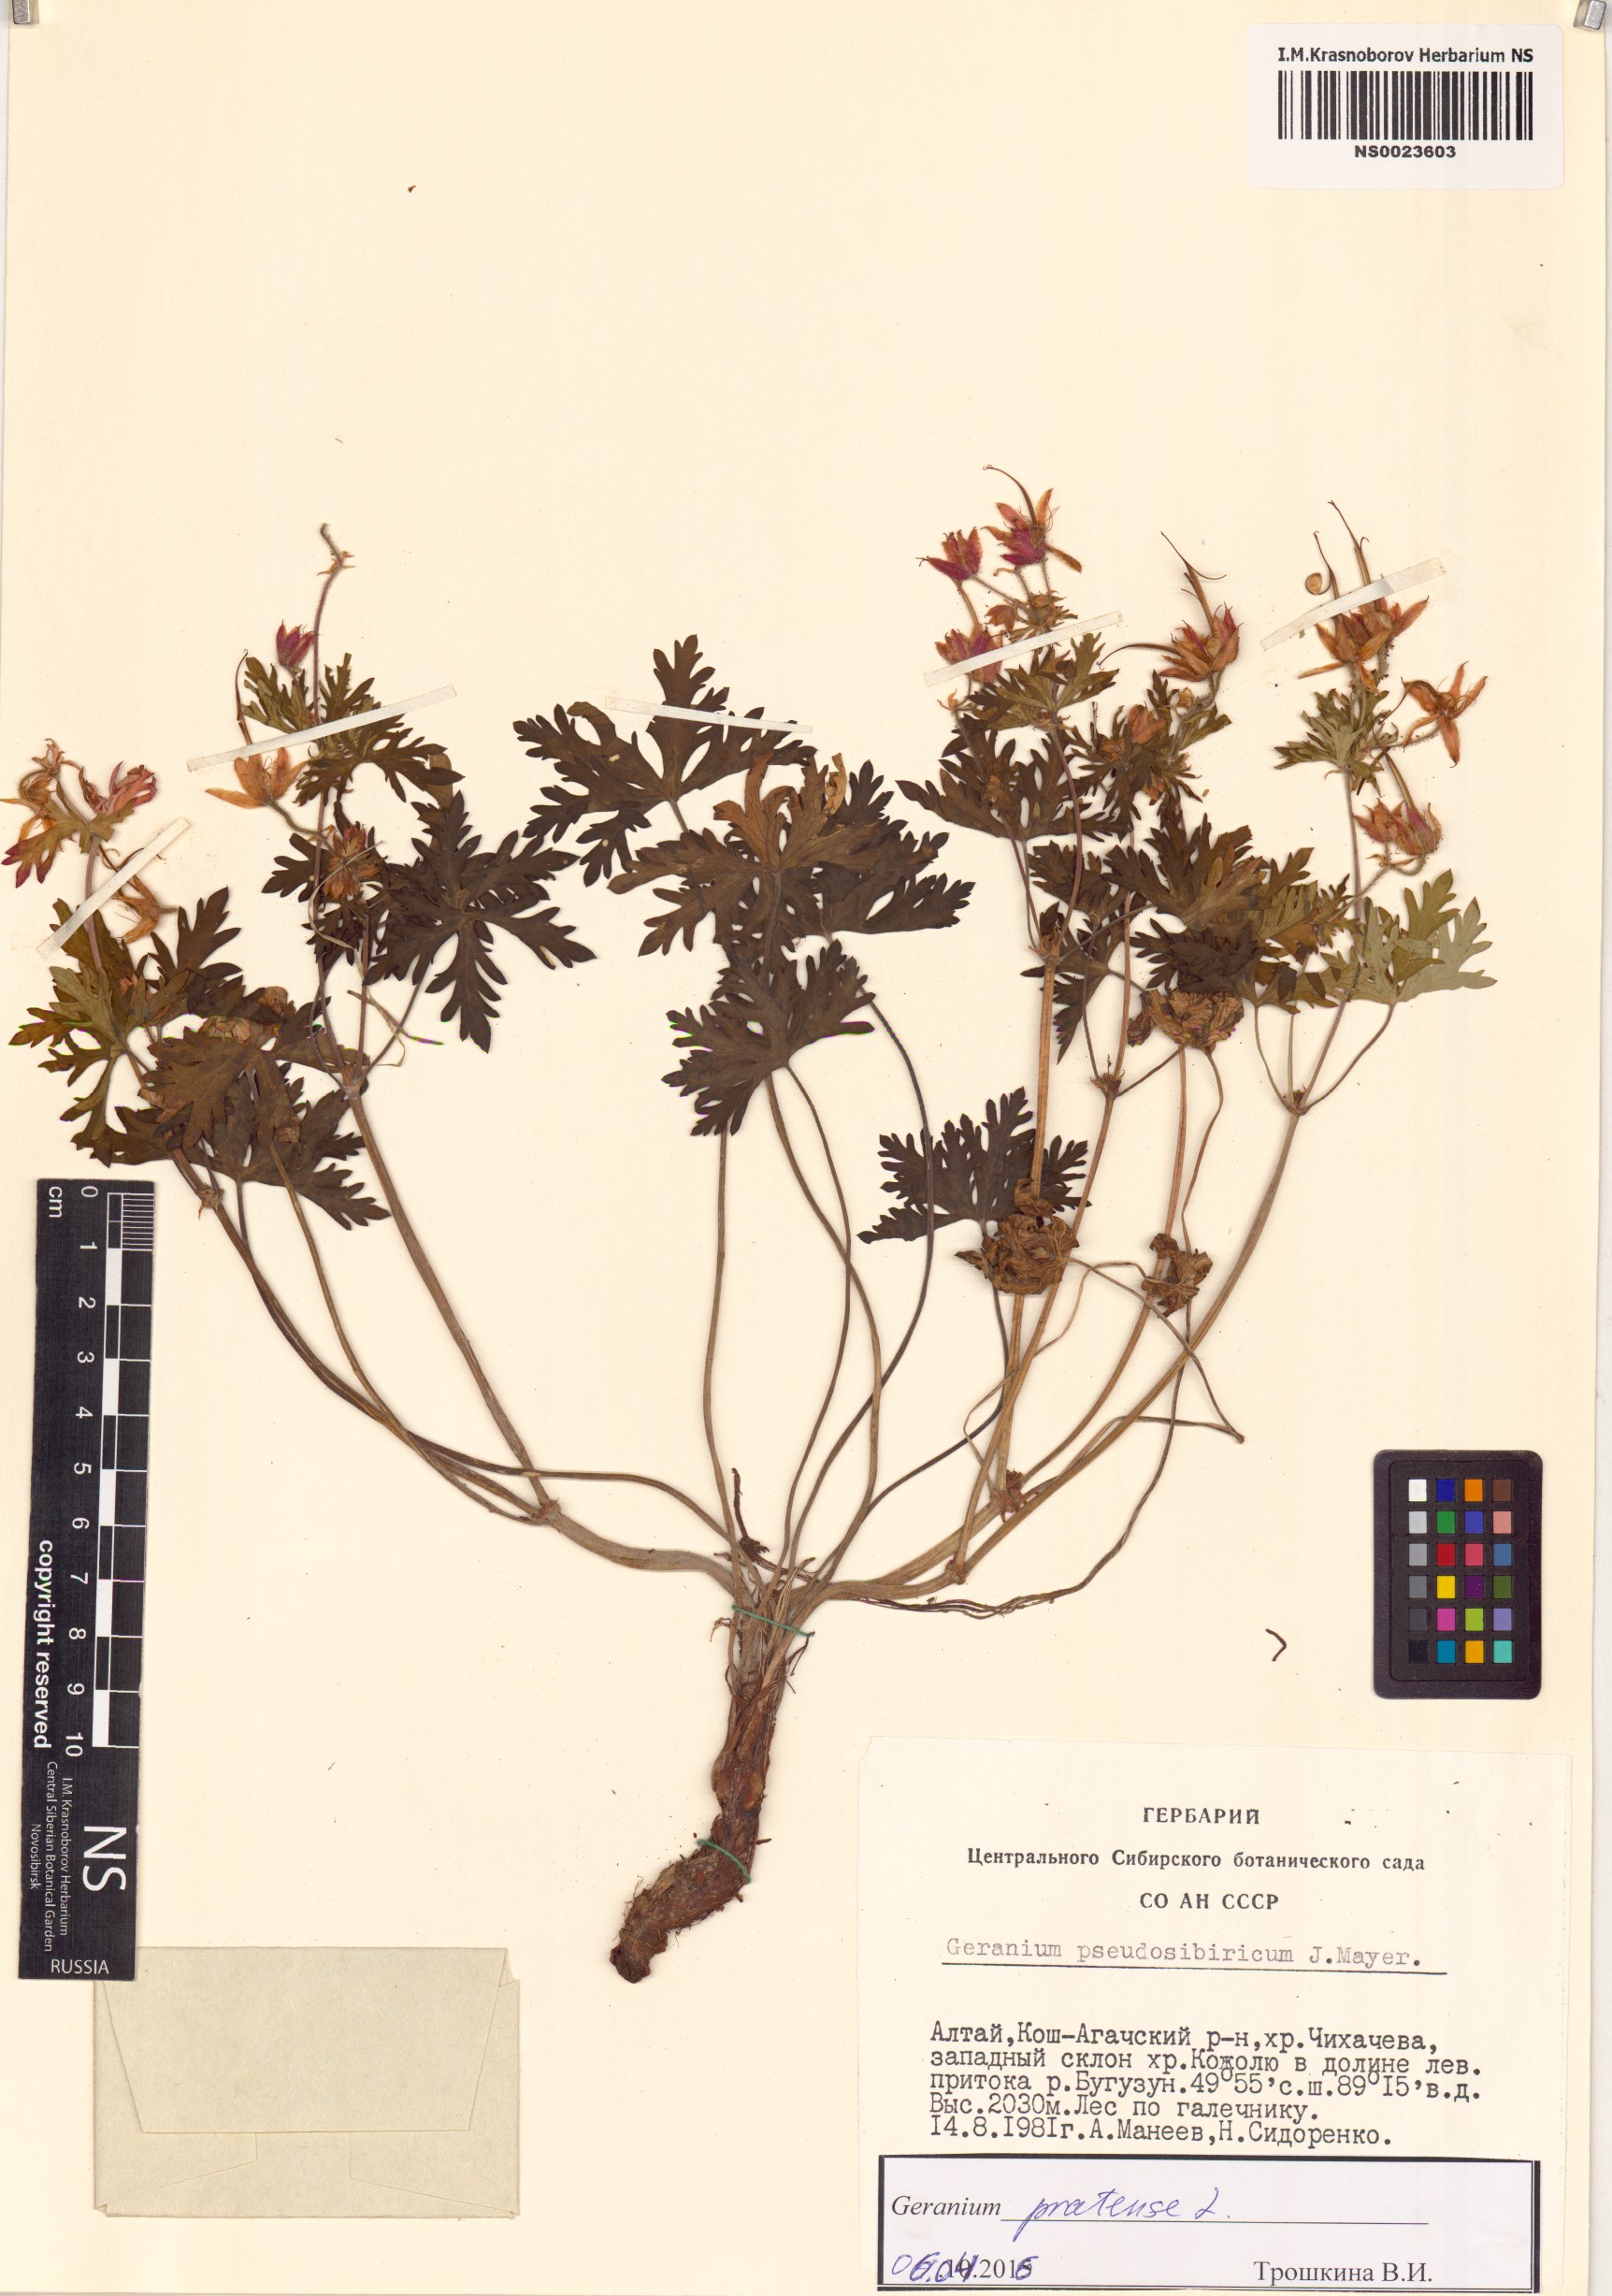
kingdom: Plantae
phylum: Tracheophyta
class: Magnoliopsida
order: Geraniales
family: Geraniaceae
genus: Geranium
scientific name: Geranium pratense
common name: Meadow crane's-bill
